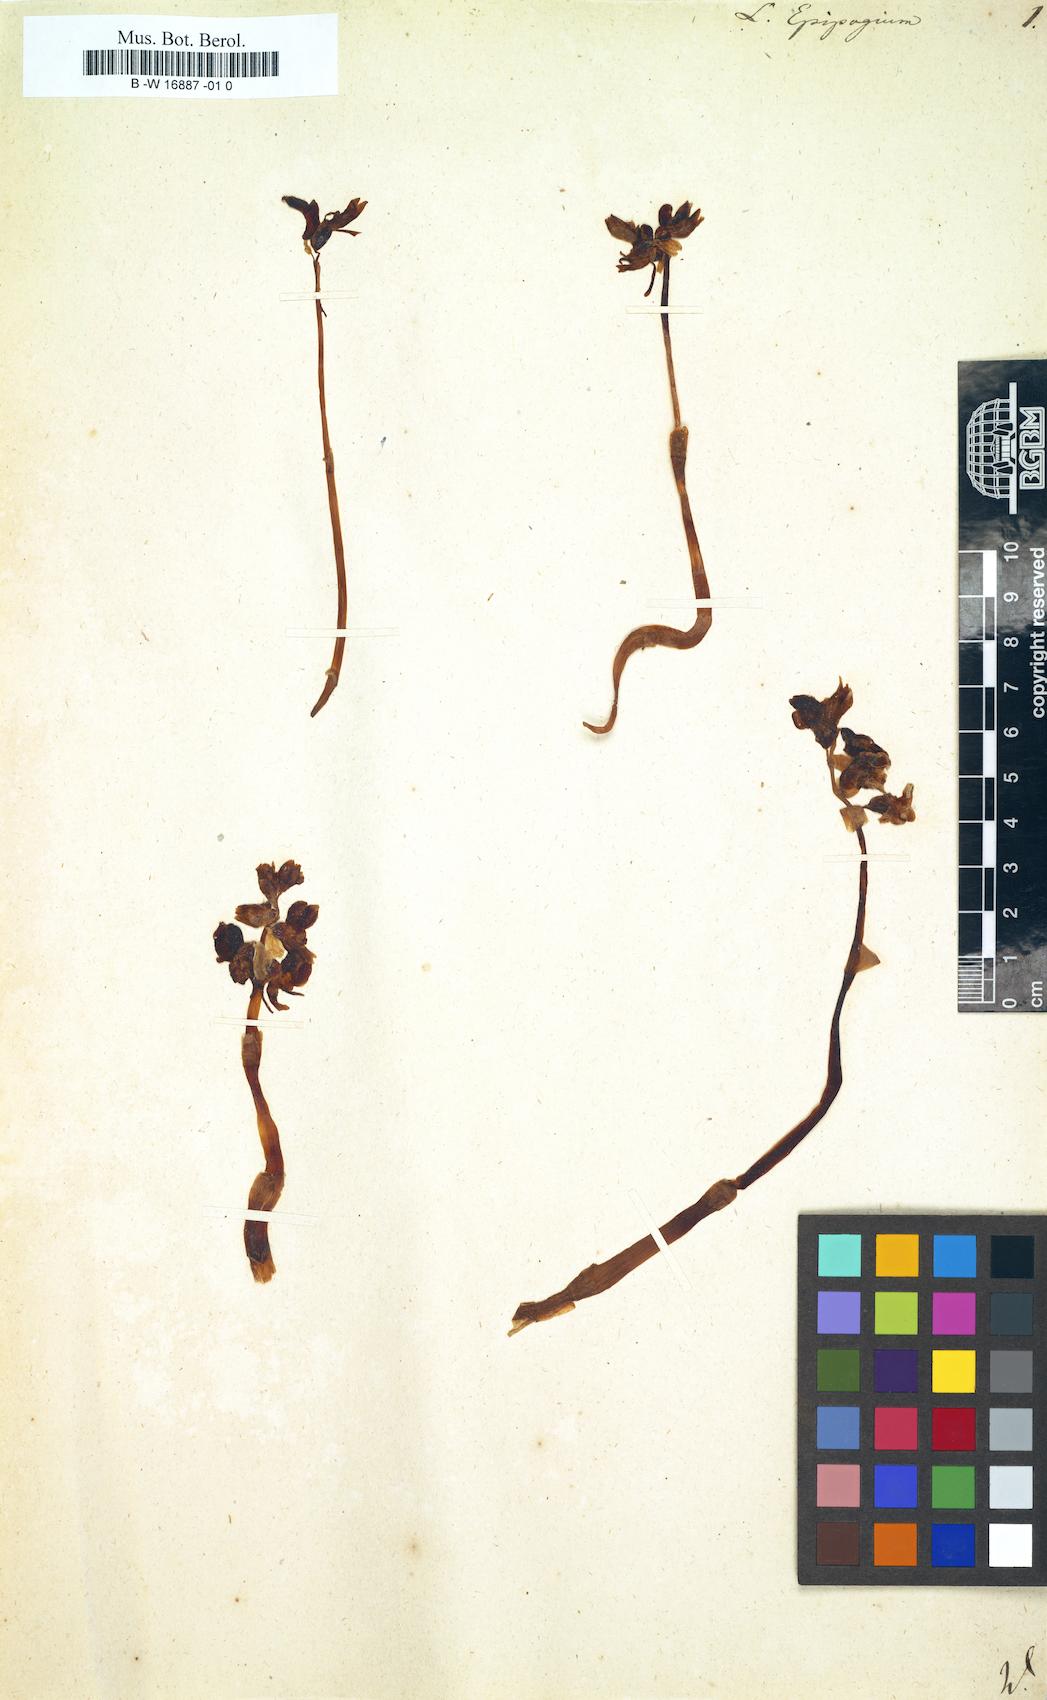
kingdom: Plantae
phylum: Tracheophyta
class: Liliopsida
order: Asparagales
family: Orchidaceae
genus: Epipogium
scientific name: Epipogium aphyllum
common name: Ghost orchid
